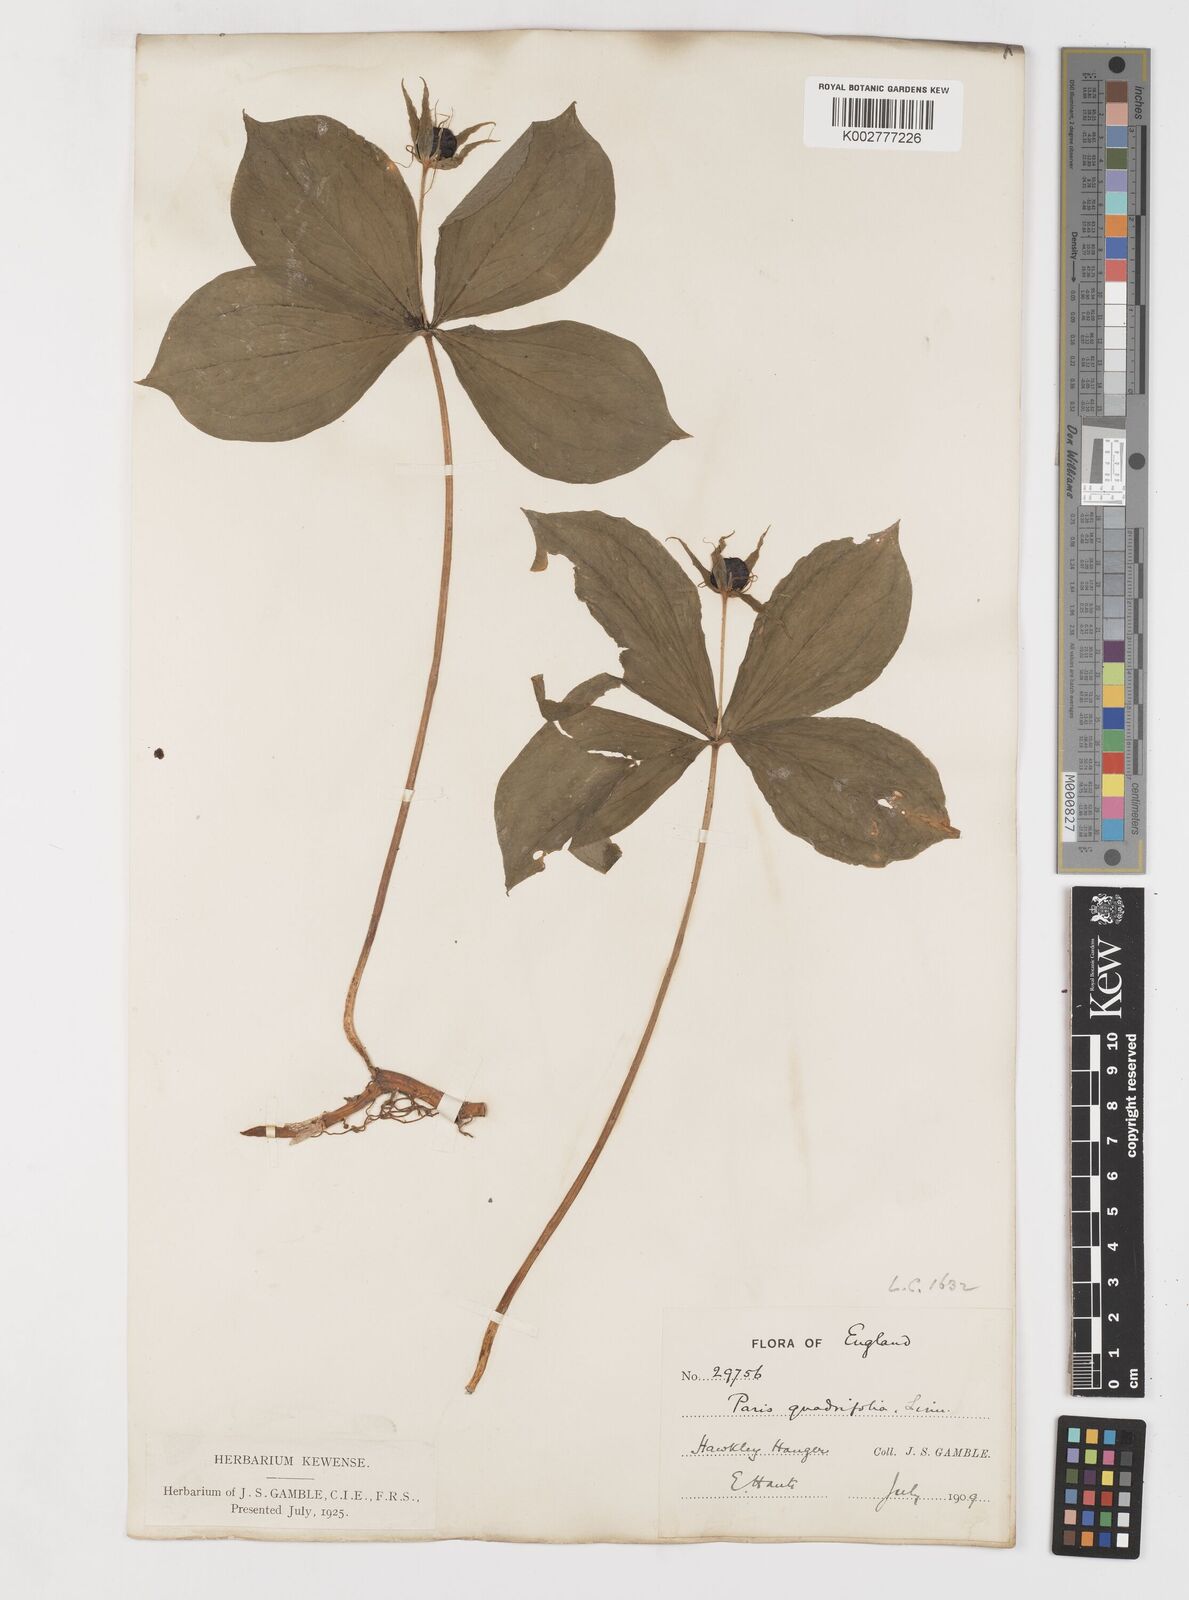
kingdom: Plantae
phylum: Tracheophyta
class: Liliopsida
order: Liliales
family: Melanthiaceae
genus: Paris
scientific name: Paris quadrifolia
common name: Herb-paris
